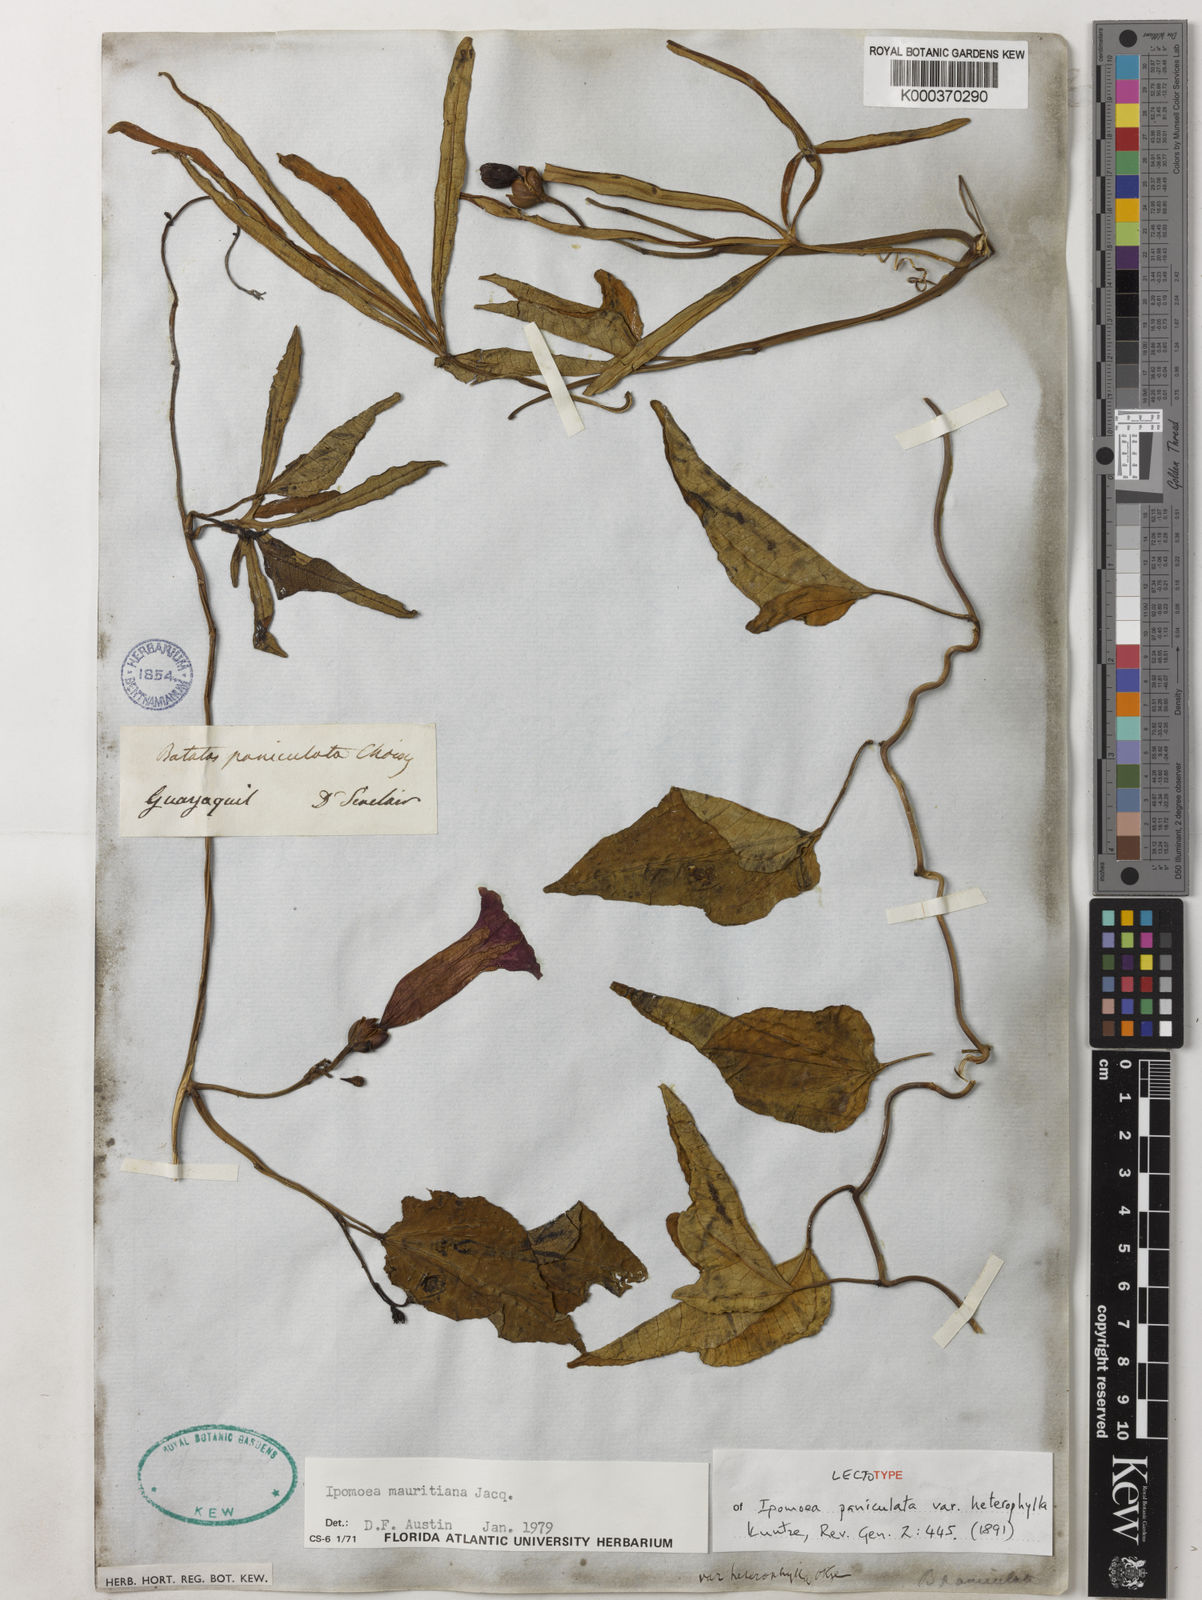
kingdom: Plantae
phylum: Tracheophyta
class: Magnoliopsida
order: Solanales
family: Convolvulaceae
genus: Ipomoea
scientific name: Ipomoea mauritiana
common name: Mauritanian convolvulus
